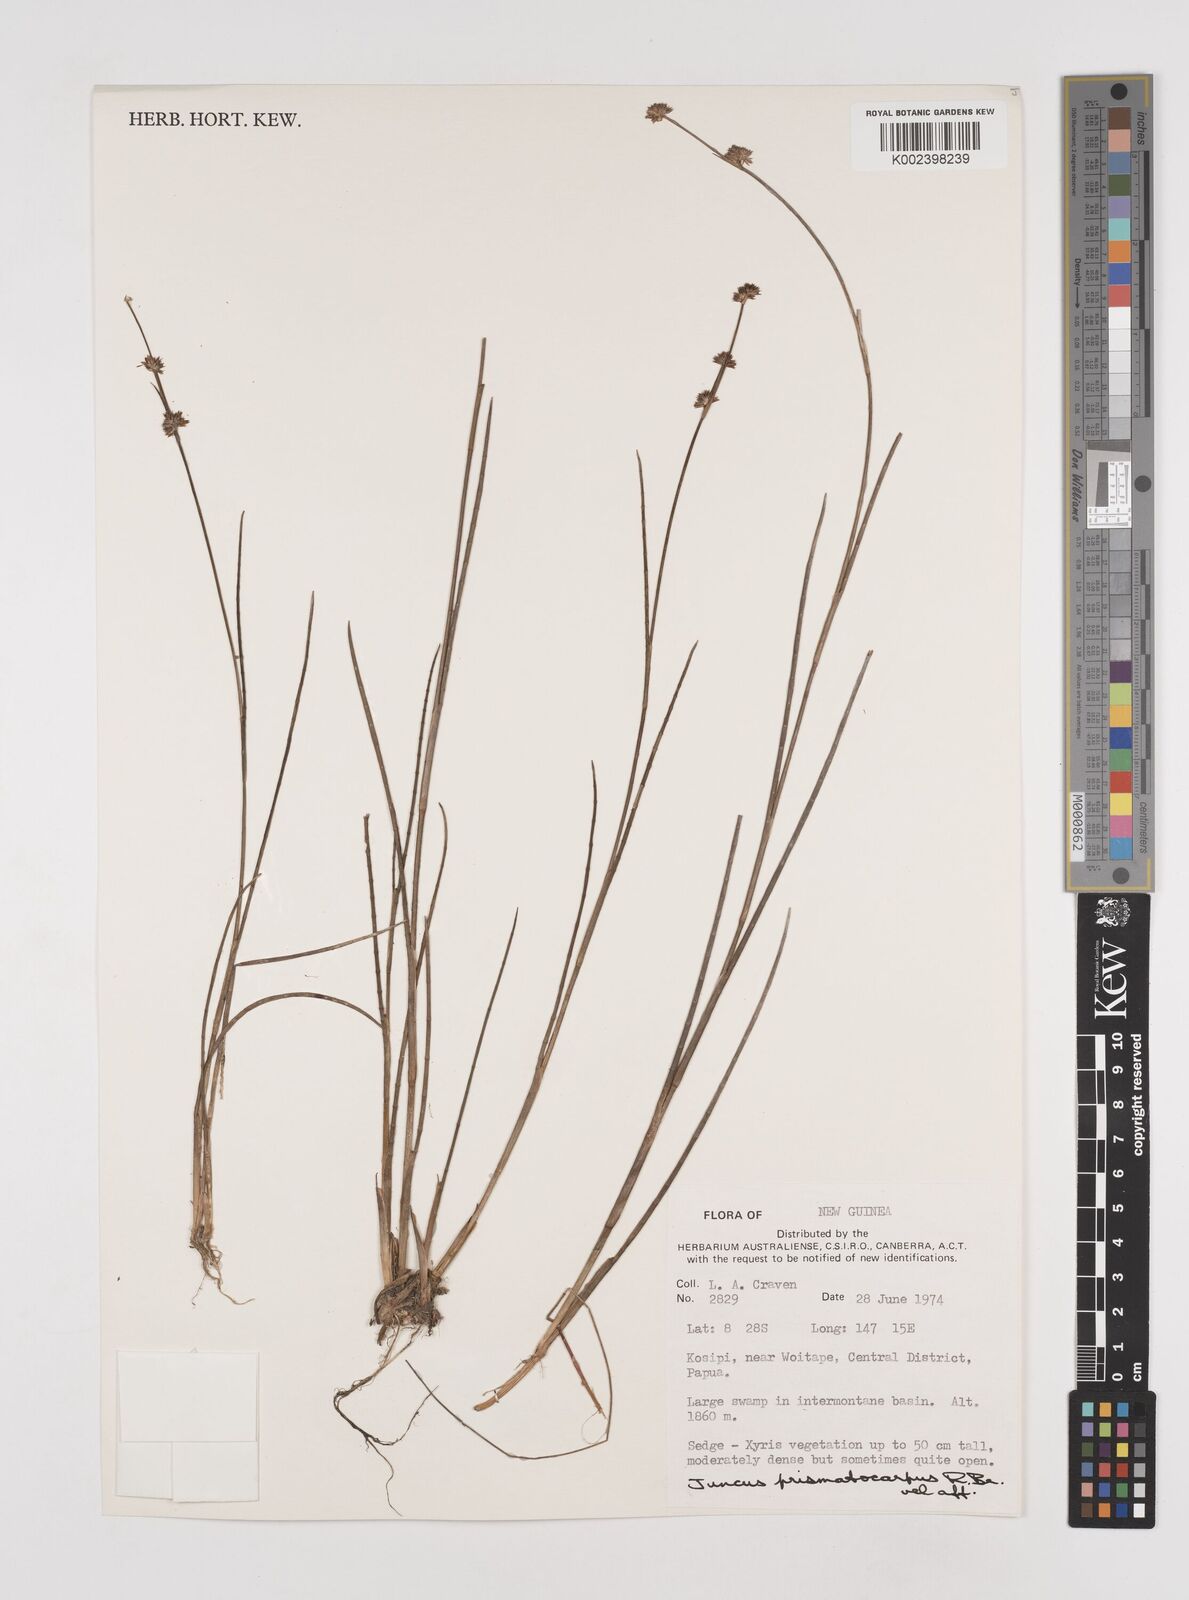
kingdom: Plantae
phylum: Tracheophyta
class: Liliopsida
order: Poales
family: Juncaceae
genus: Juncus
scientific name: Juncus wallichianus
